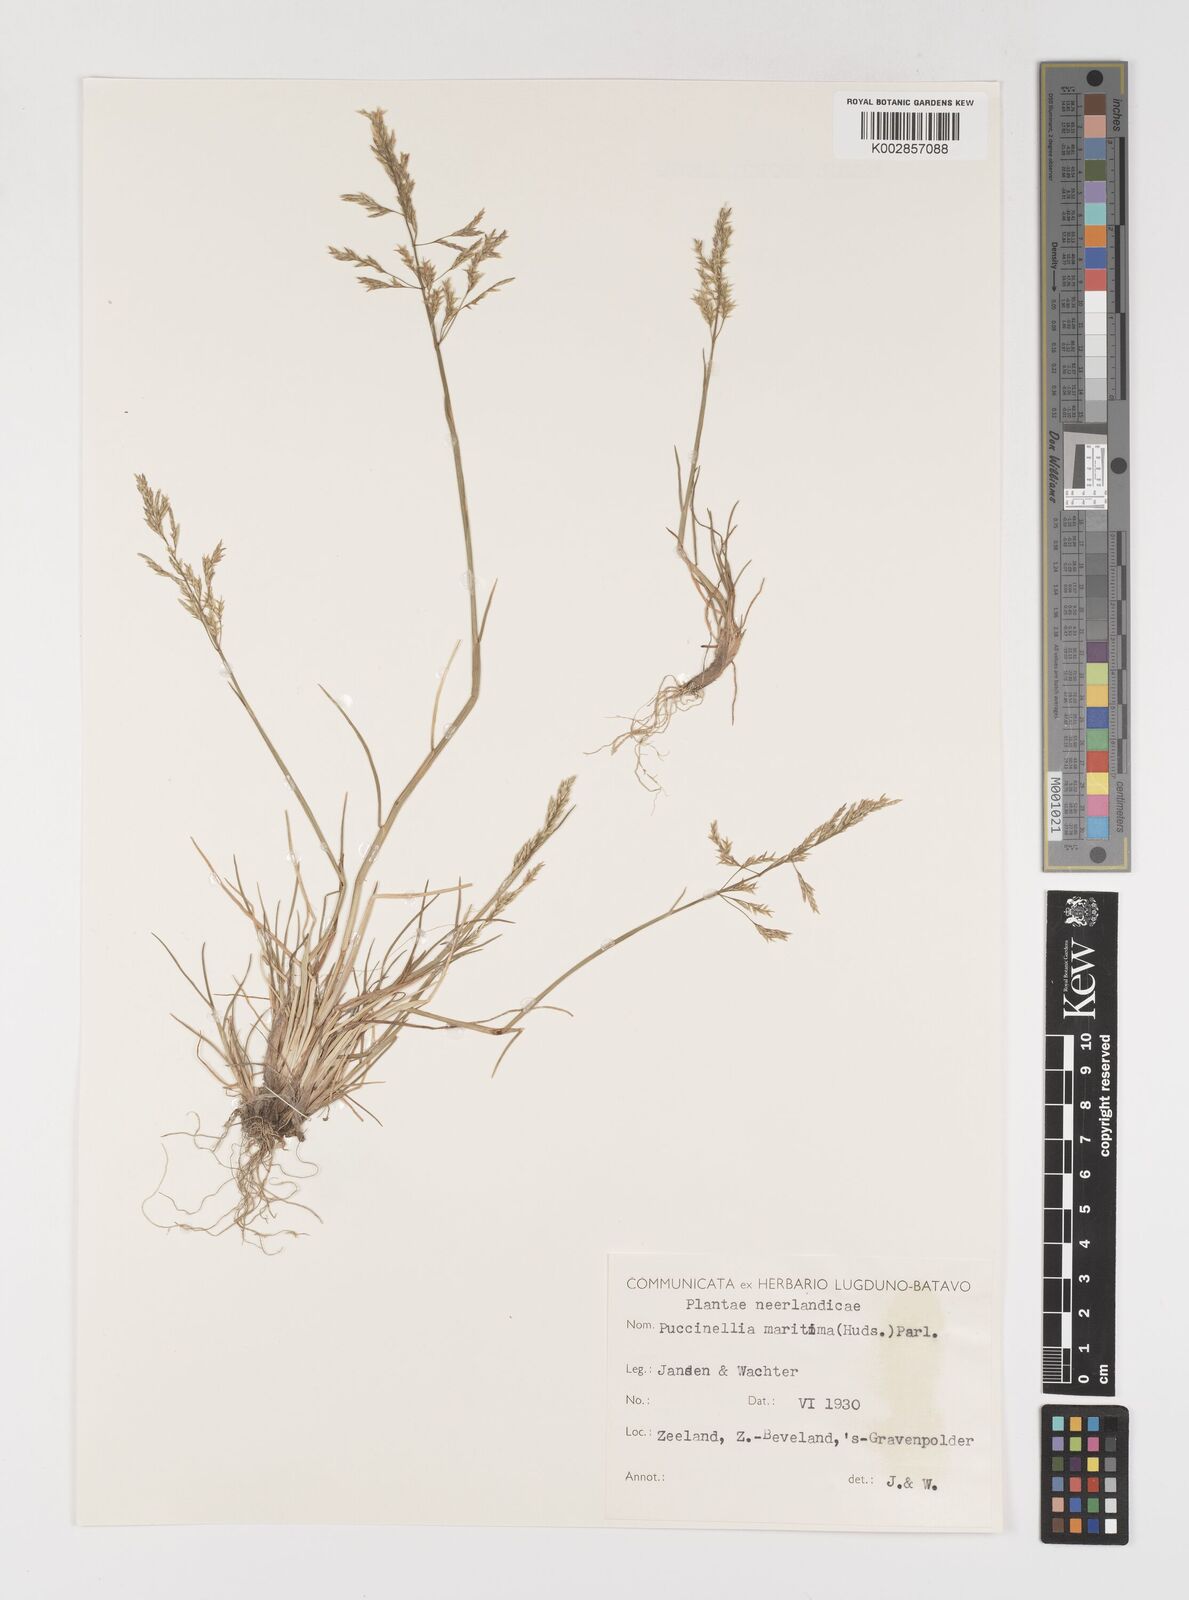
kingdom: Plantae
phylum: Tracheophyta
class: Liliopsida
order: Poales
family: Poaceae
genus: Puccinellia
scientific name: Puccinellia maritima
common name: Common saltmarsh grass
